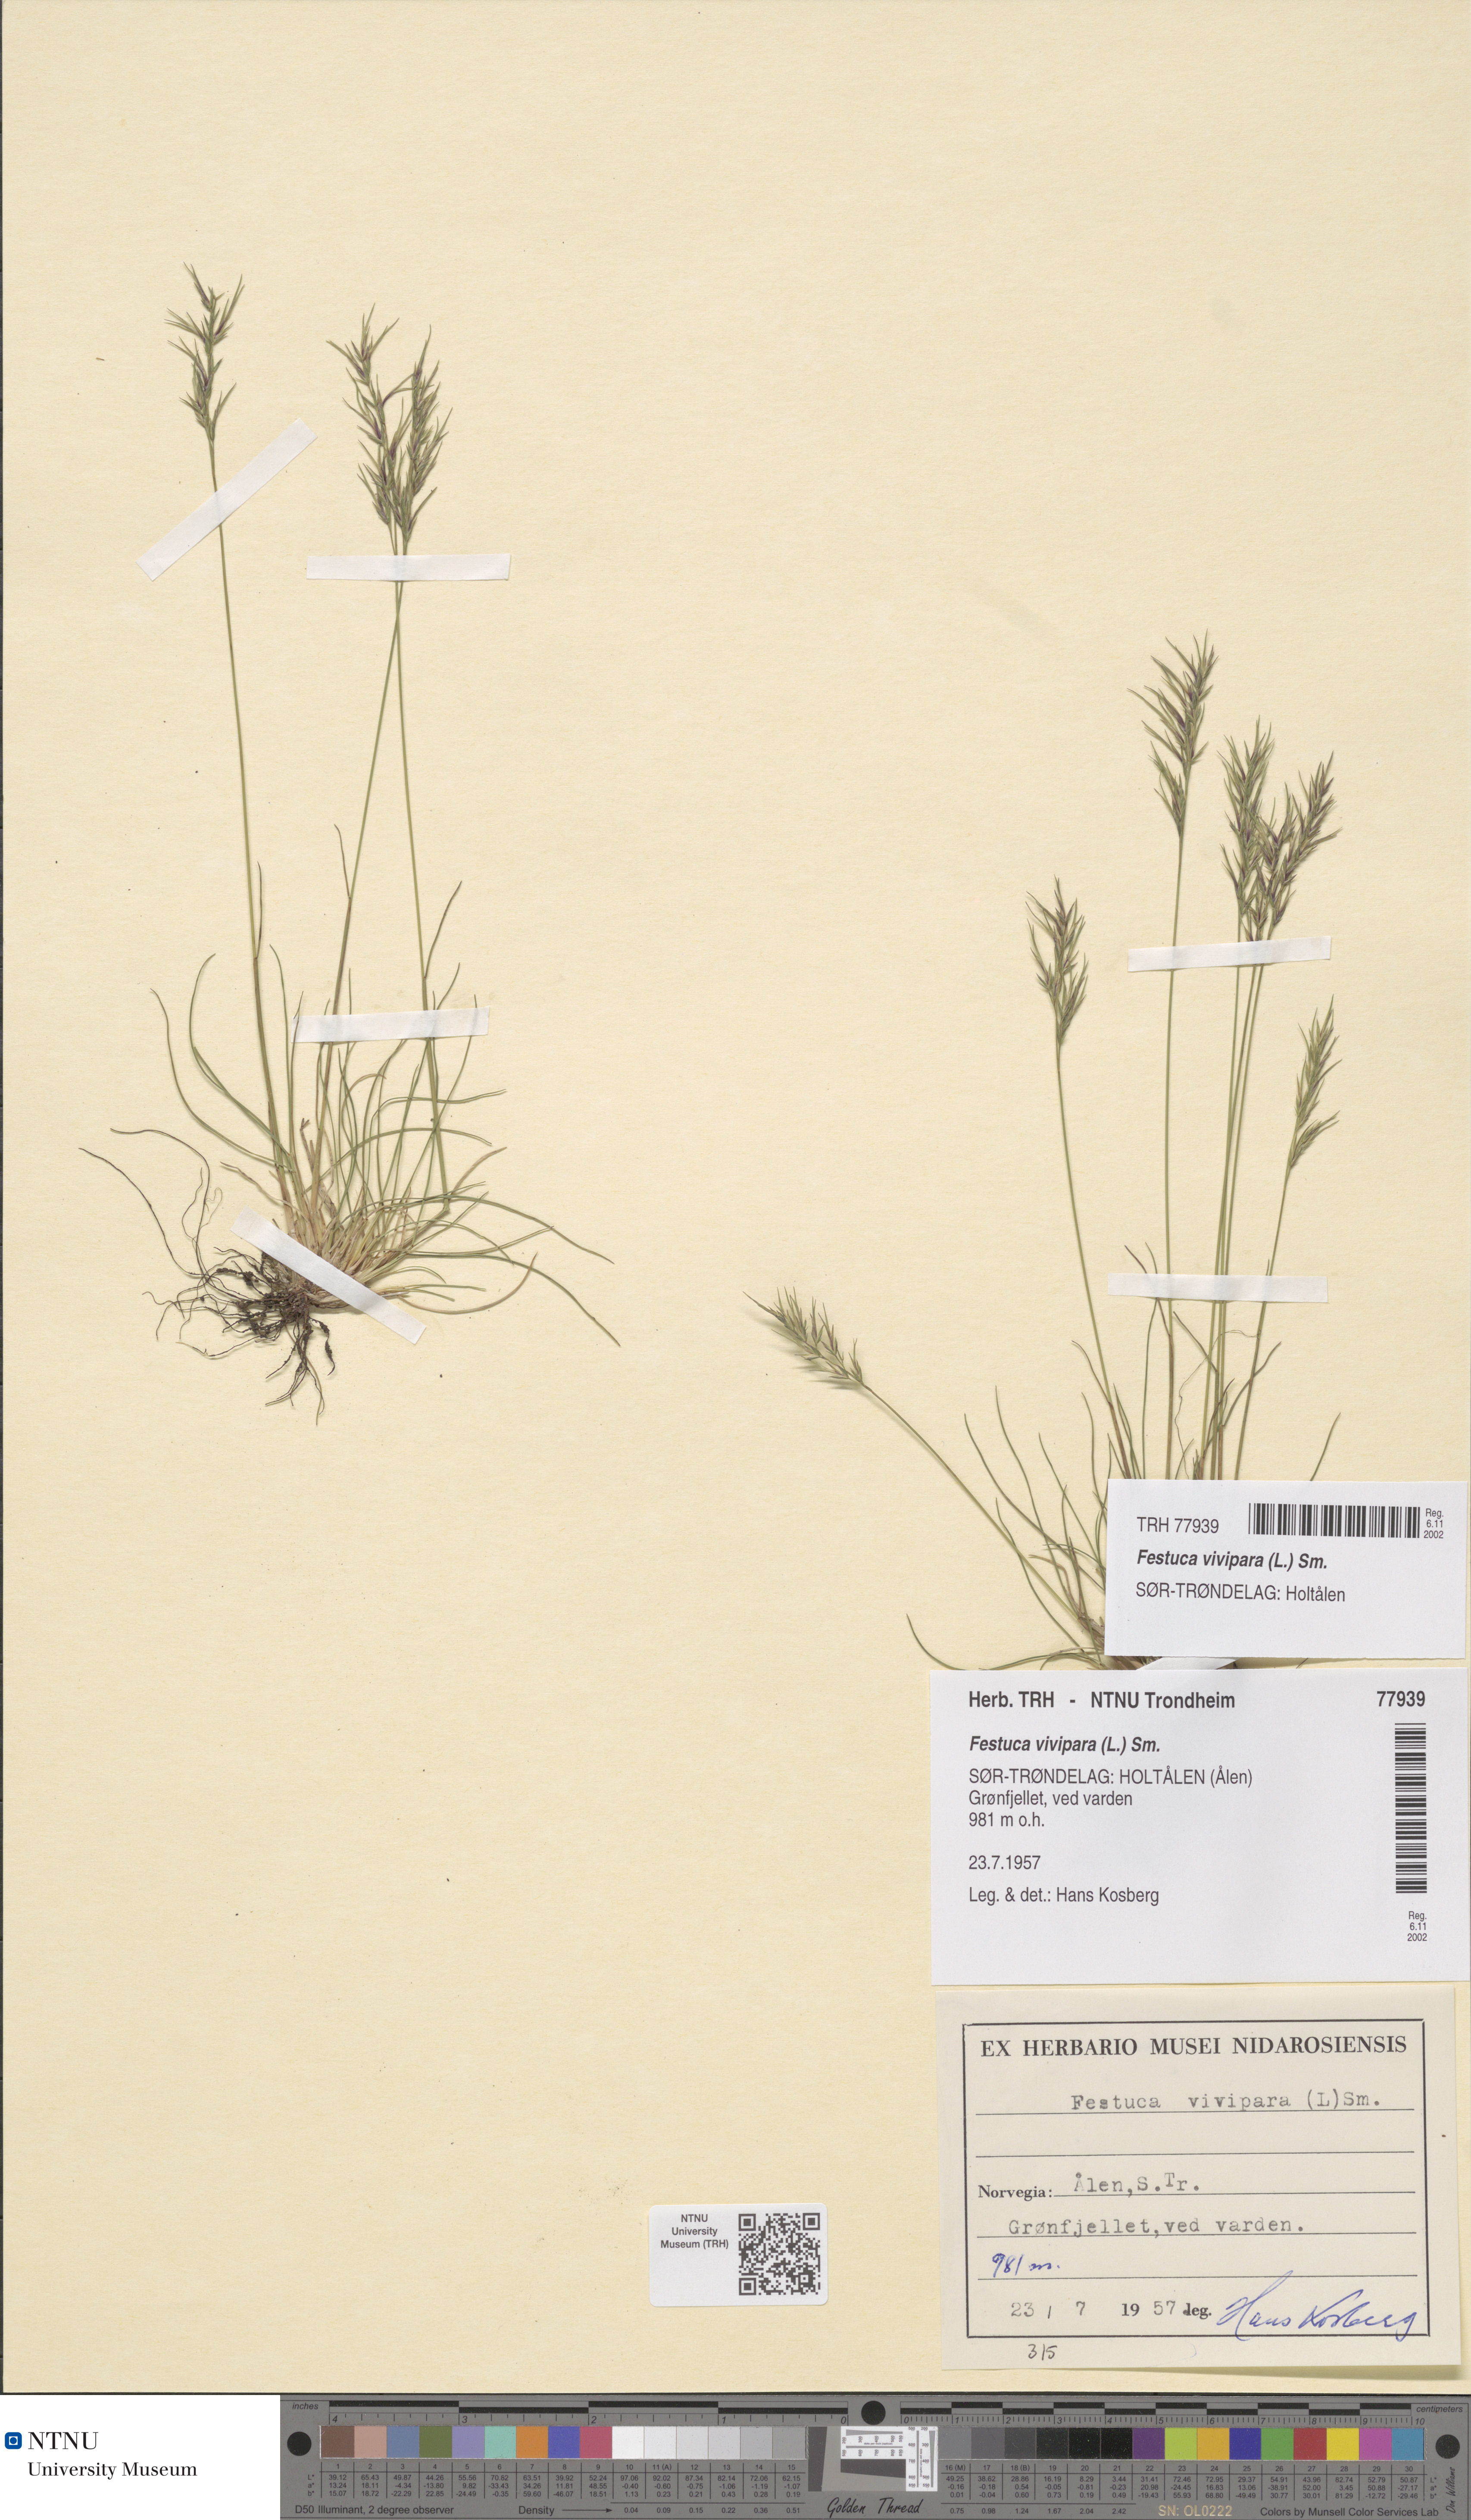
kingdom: Plantae
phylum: Tracheophyta
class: Liliopsida
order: Poales
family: Poaceae
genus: Festuca
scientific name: Festuca vivipara
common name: Viviparous sheep's-fescue
